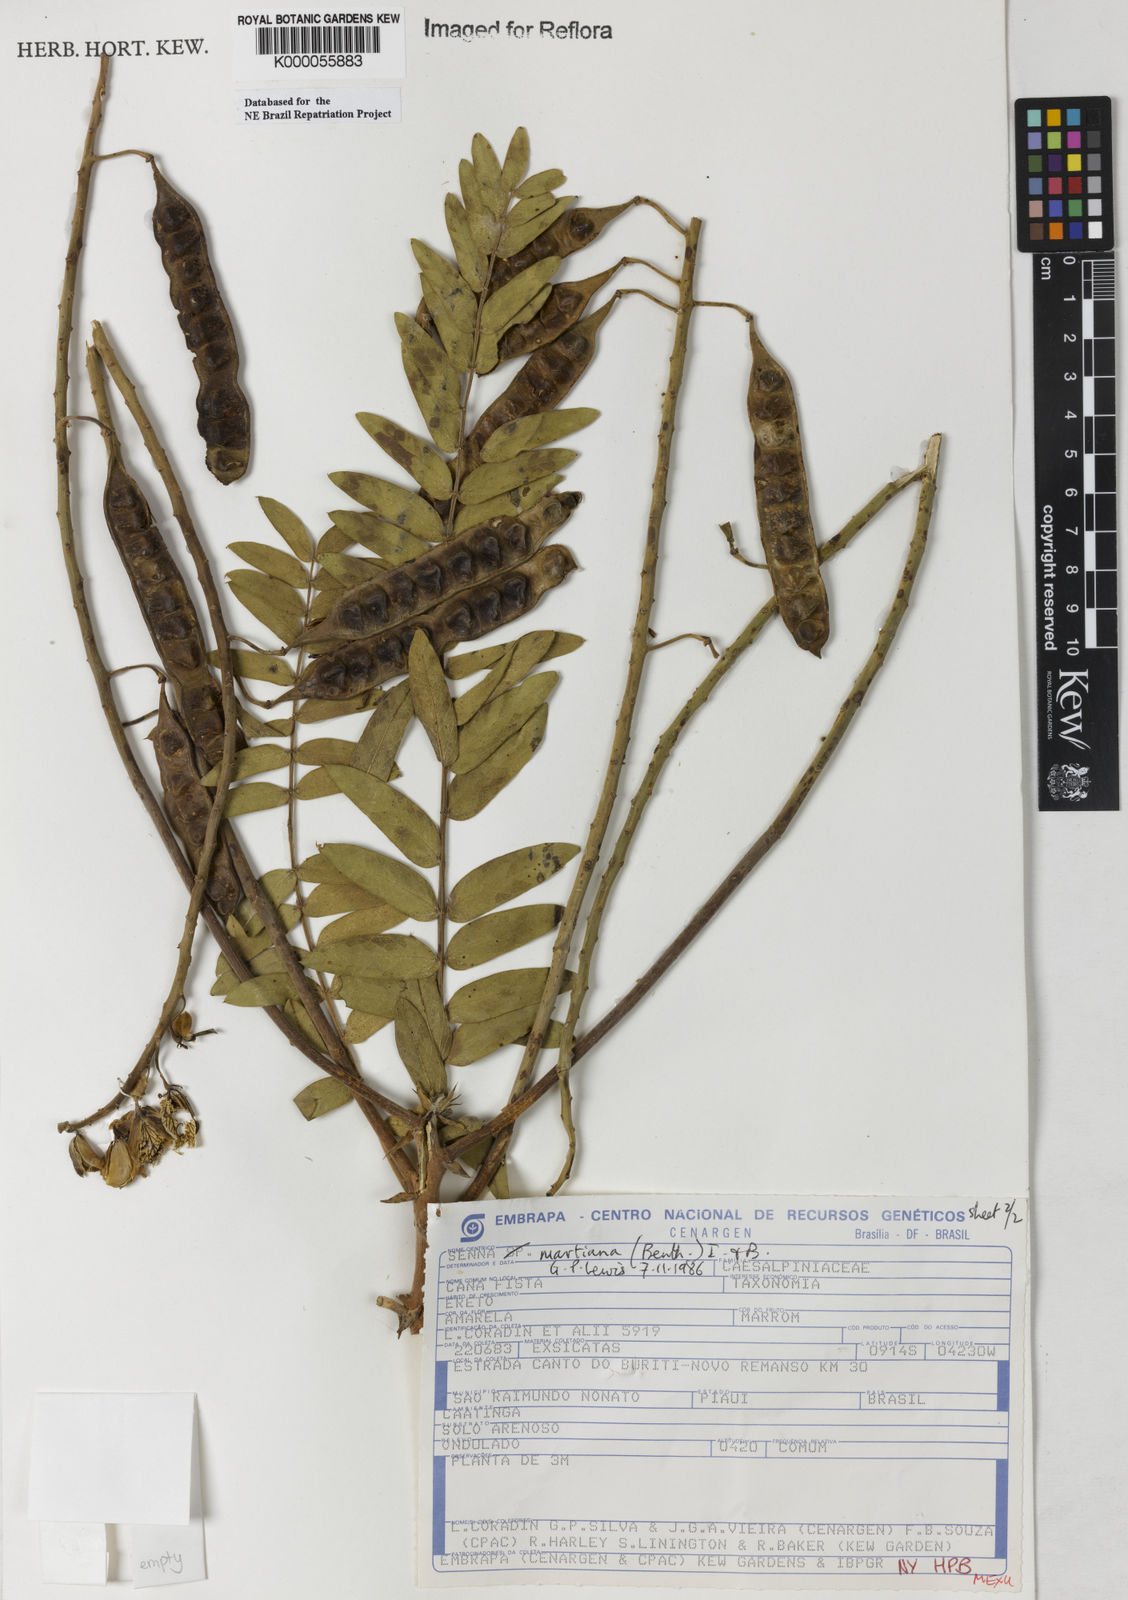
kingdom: Plantae
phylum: Tracheophyta
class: Magnoliopsida
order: Fabales
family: Fabaceae
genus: Senna
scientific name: Senna martiana
